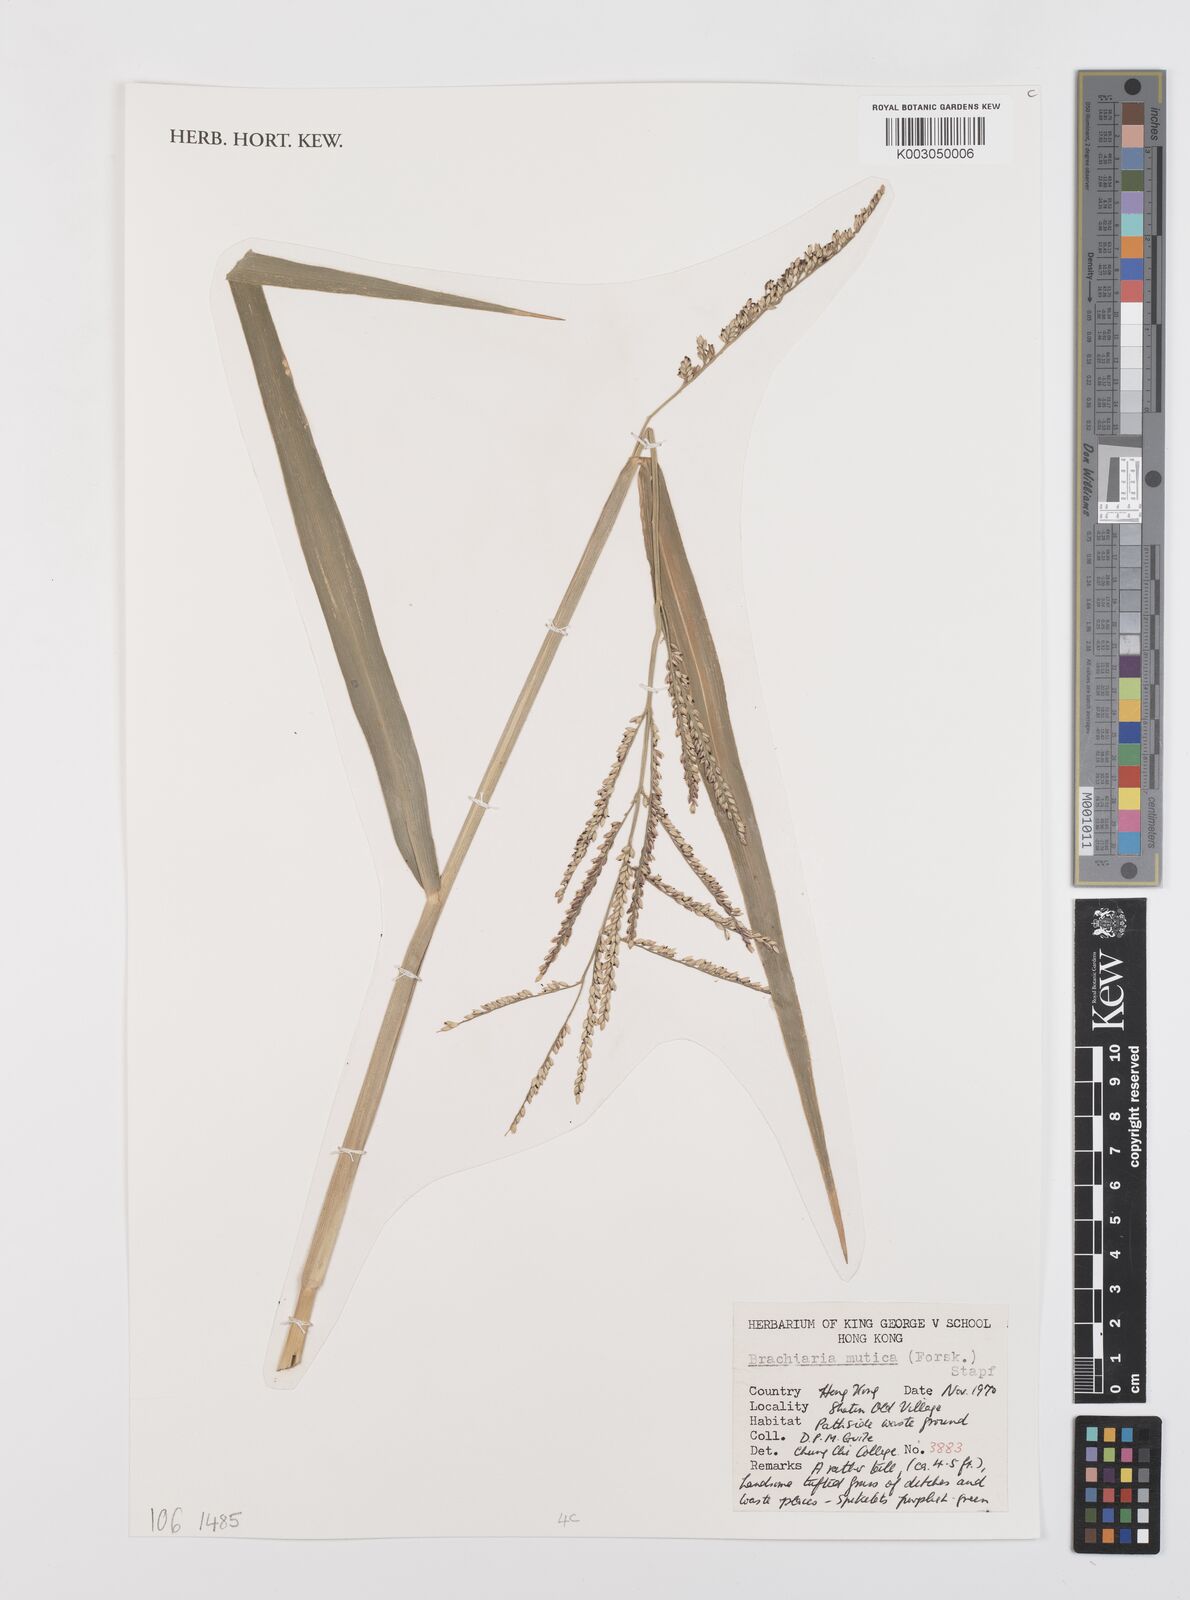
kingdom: Plantae
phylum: Tracheophyta
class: Liliopsida
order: Poales
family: Poaceae
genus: Urochloa
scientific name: Urochloa mutica
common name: Para grass
